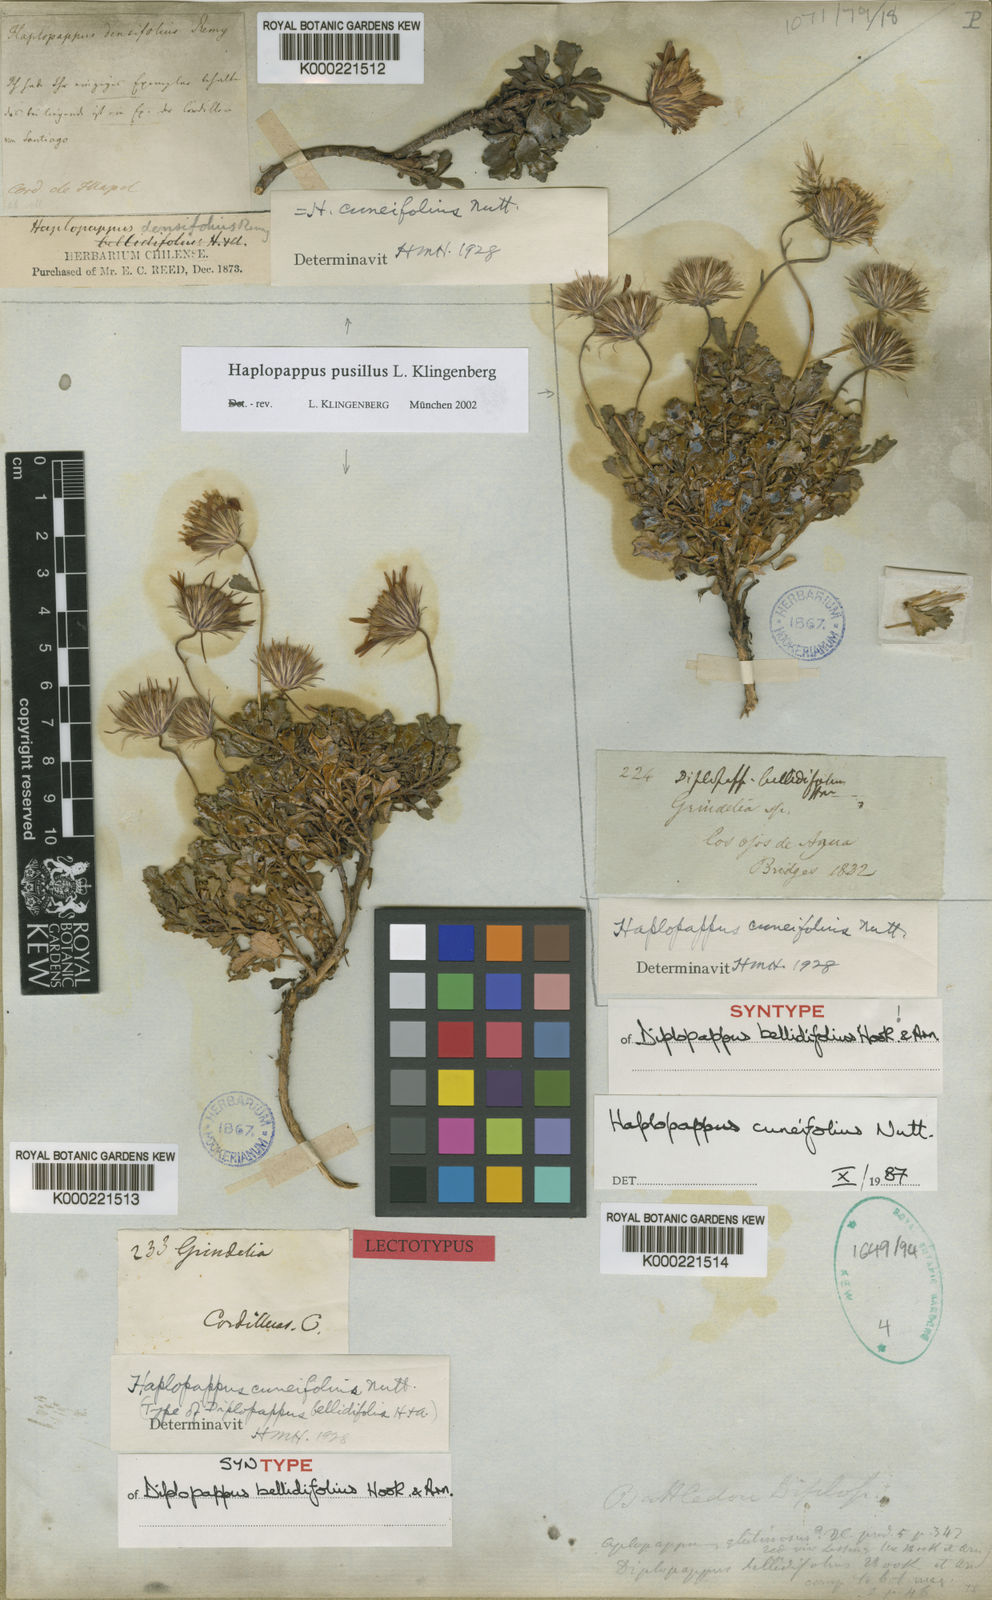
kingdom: Plantae
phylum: Tracheophyta
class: Magnoliopsida
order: Asterales
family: Asteraceae
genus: Haplopappus
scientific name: Haplopappus pusillus
